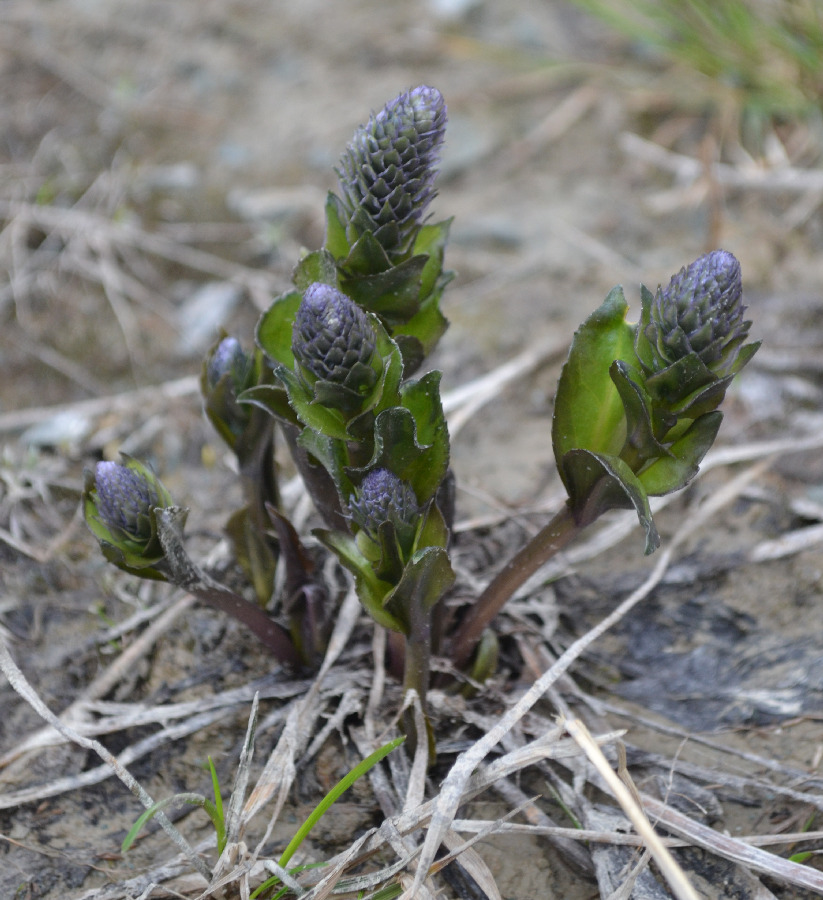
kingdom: Plantae
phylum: Tracheophyta
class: Magnoliopsida
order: Lamiales
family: Plantaginaceae
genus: Lagotis
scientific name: Lagotis glauca
